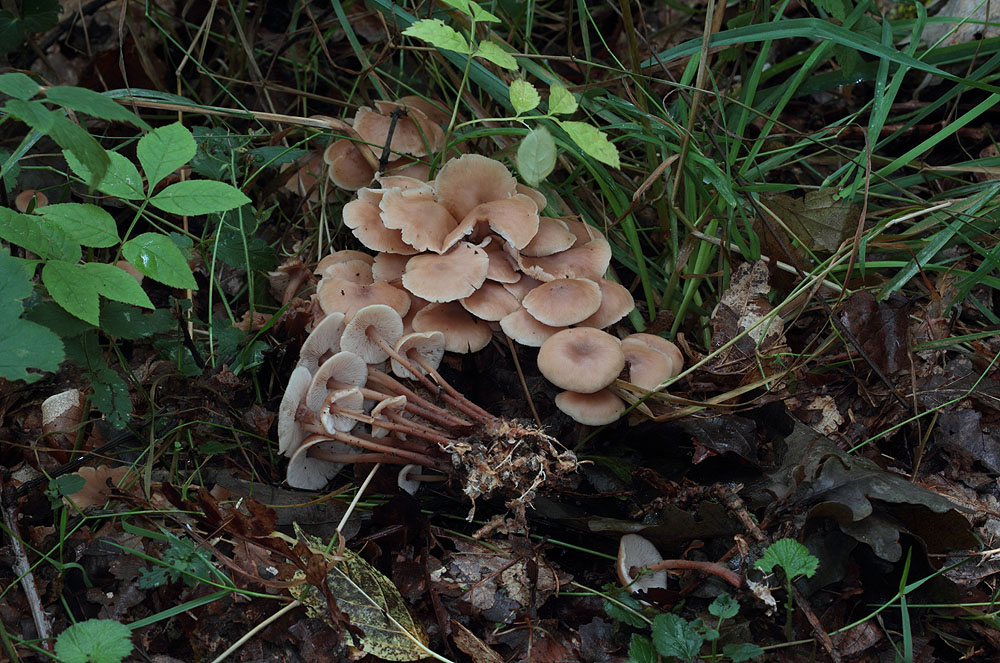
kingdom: Fungi
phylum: Basidiomycota
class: Agaricomycetes
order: Agaricales
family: Omphalotaceae
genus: Collybiopsis
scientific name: Collybiopsis confluens
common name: knippe-fladhat
